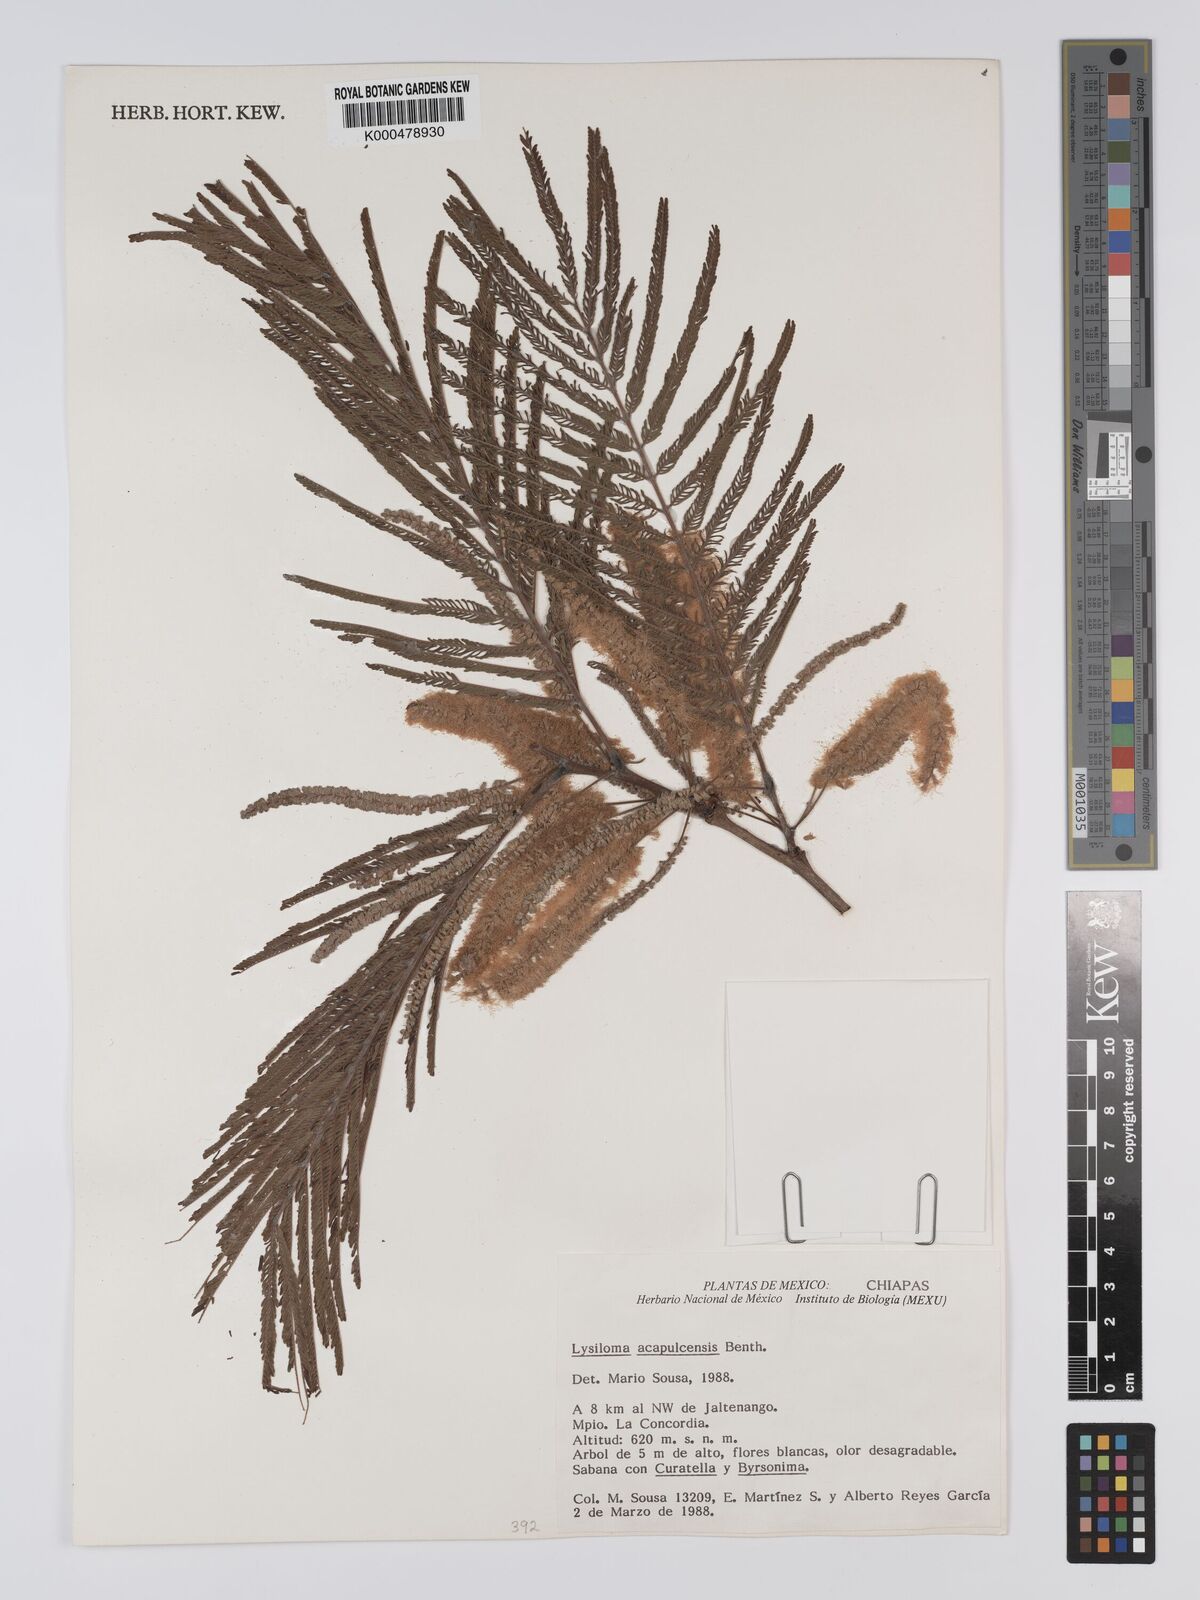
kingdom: Plantae
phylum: Tracheophyta
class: Magnoliopsida
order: Fabales
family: Fabaceae
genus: Lysiloma
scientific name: Lysiloma
